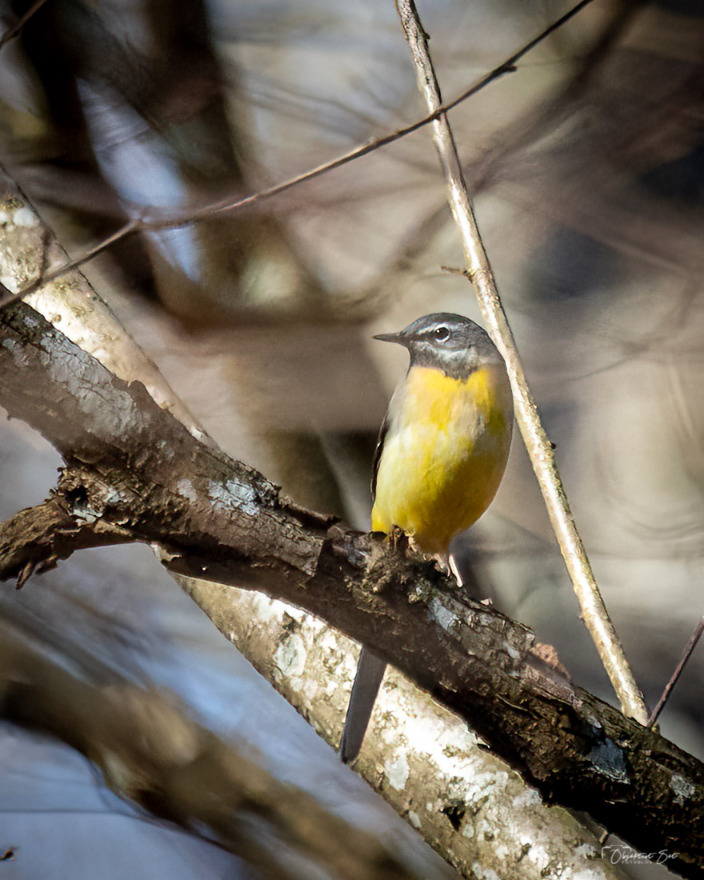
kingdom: Animalia
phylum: Chordata
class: Aves
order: Passeriformes
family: Motacillidae
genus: Motacilla
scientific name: Motacilla cinerea
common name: Bjergvipstjert
